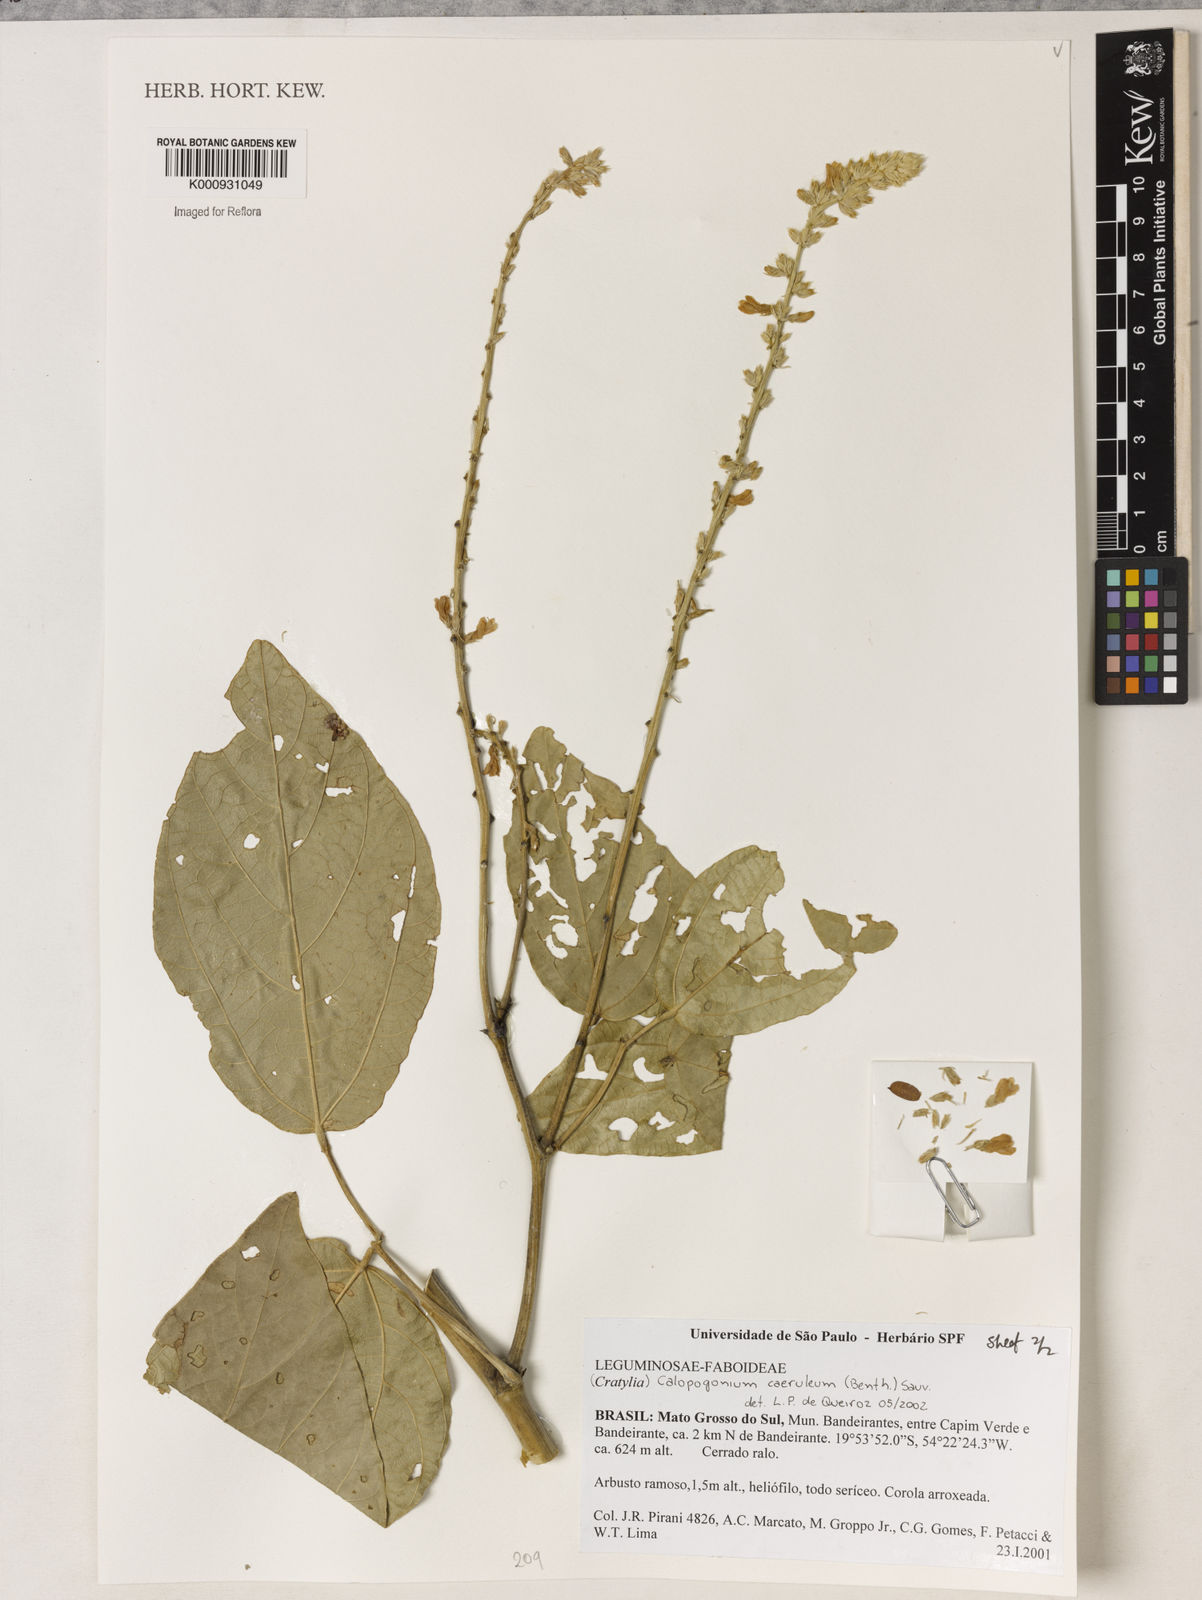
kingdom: Plantae
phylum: Tracheophyta
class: Magnoliopsida
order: Fabales
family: Fabaceae
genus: Calopogonium
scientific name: Calopogonium caeruleum
